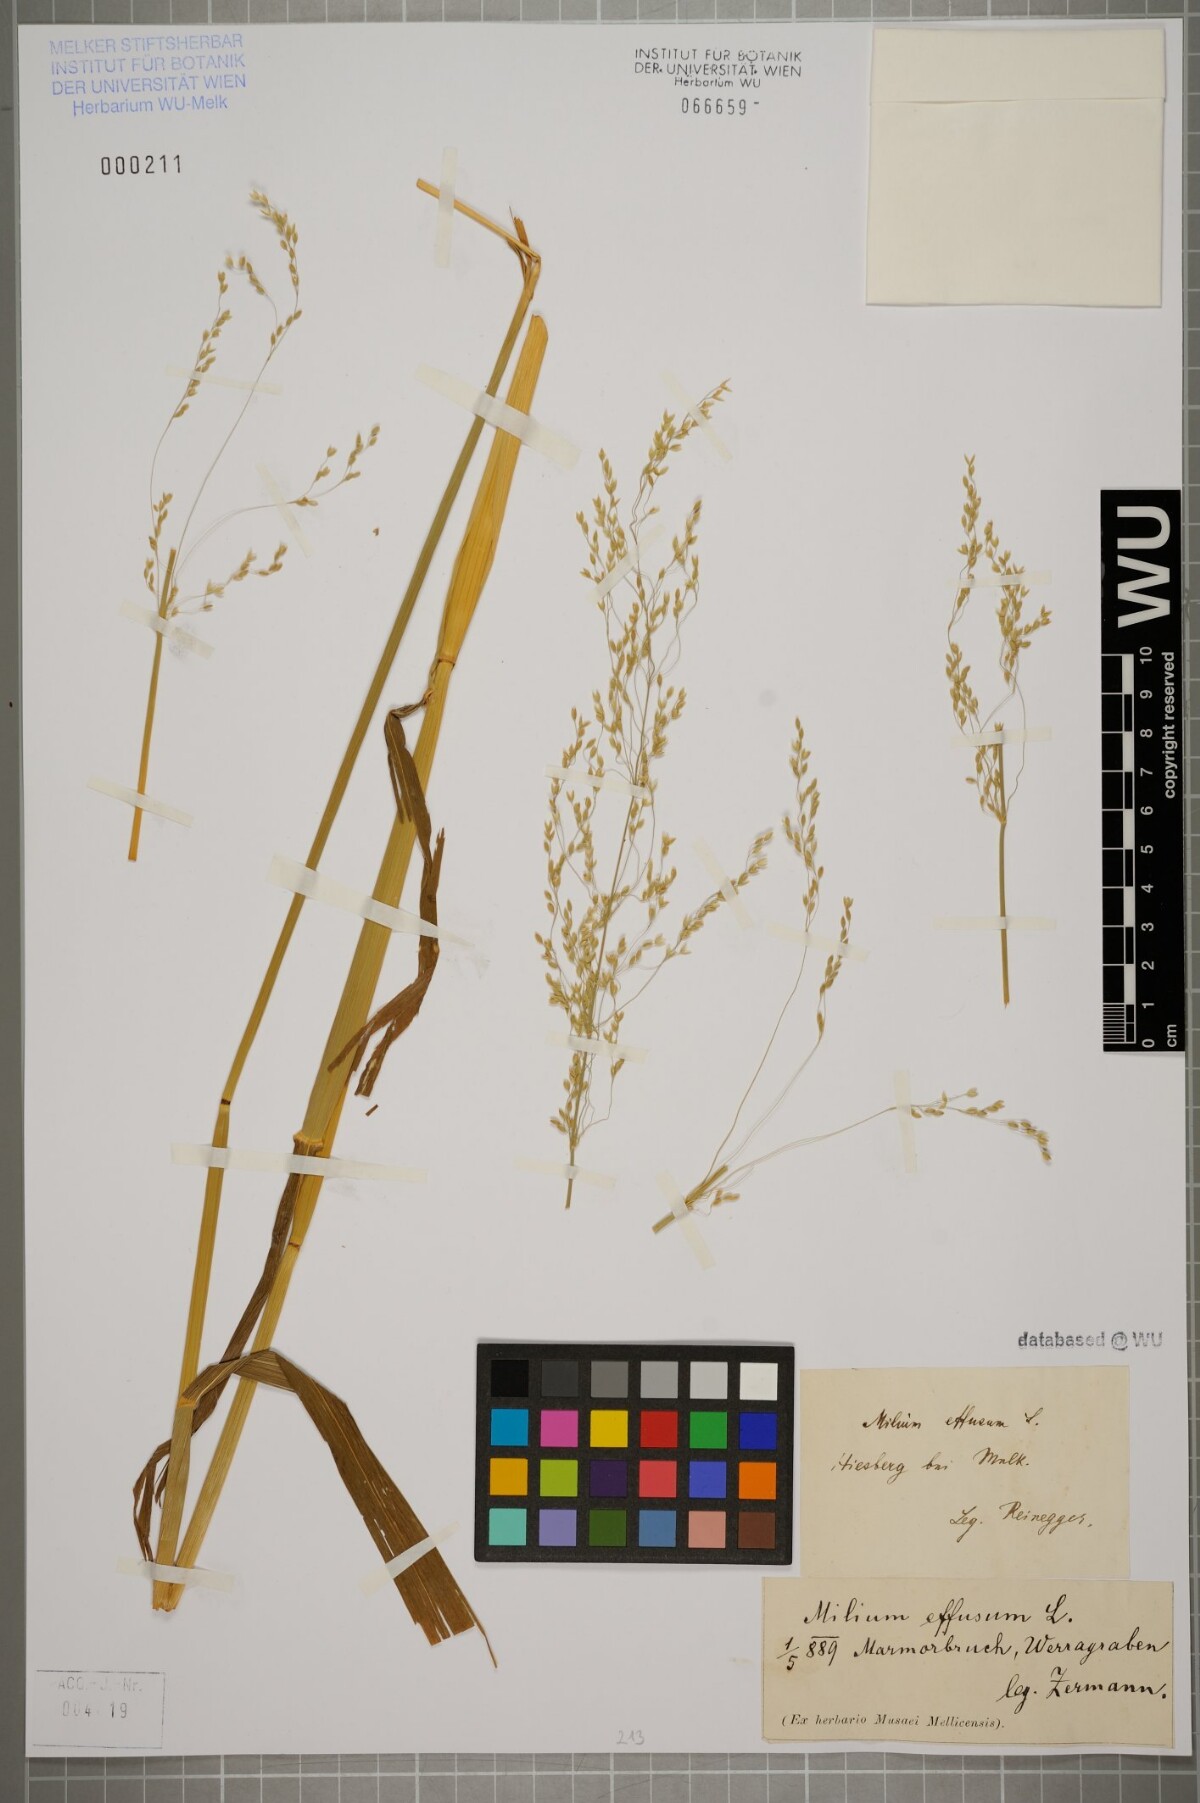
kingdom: Plantae
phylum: Tracheophyta
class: Liliopsida
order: Poales
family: Poaceae
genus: Milium
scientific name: Milium effusum
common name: Wood millet
